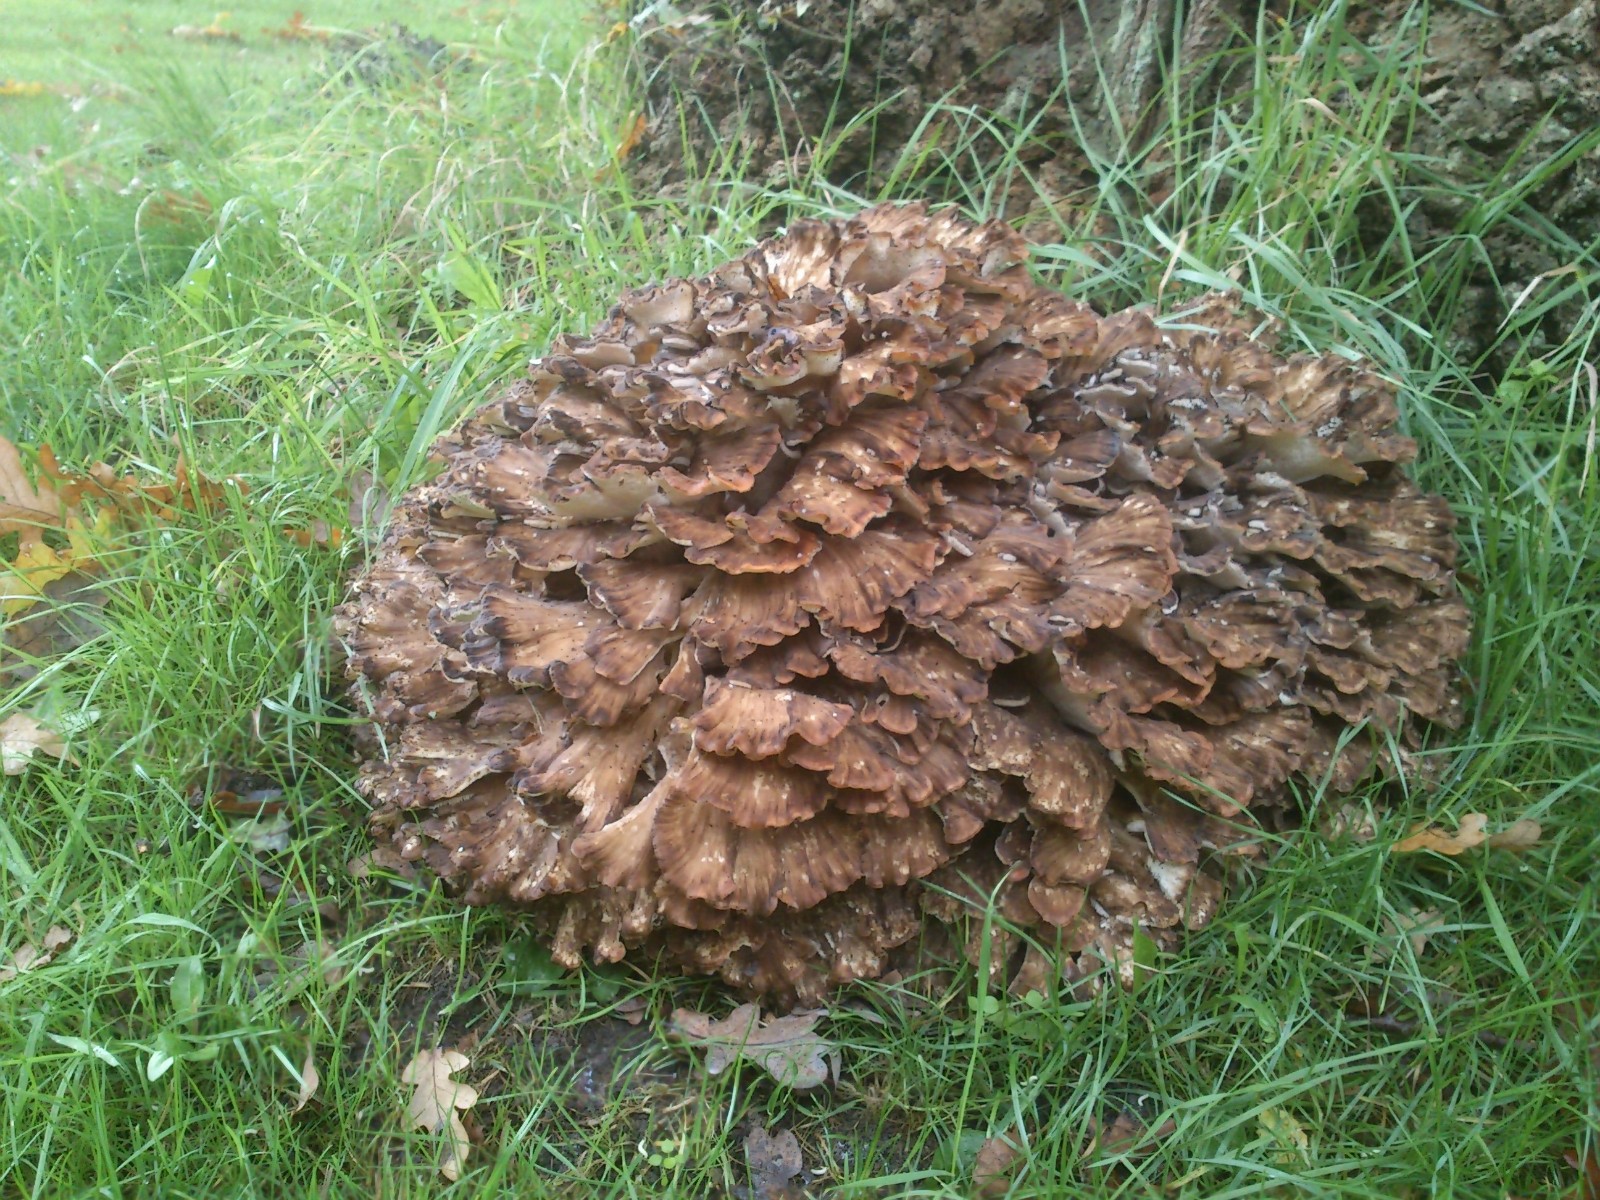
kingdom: Fungi
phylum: Basidiomycota
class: Agaricomycetes
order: Polyporales
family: Grifolaceae
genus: Grifola
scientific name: Grifola frondosa
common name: tueporesvamp
